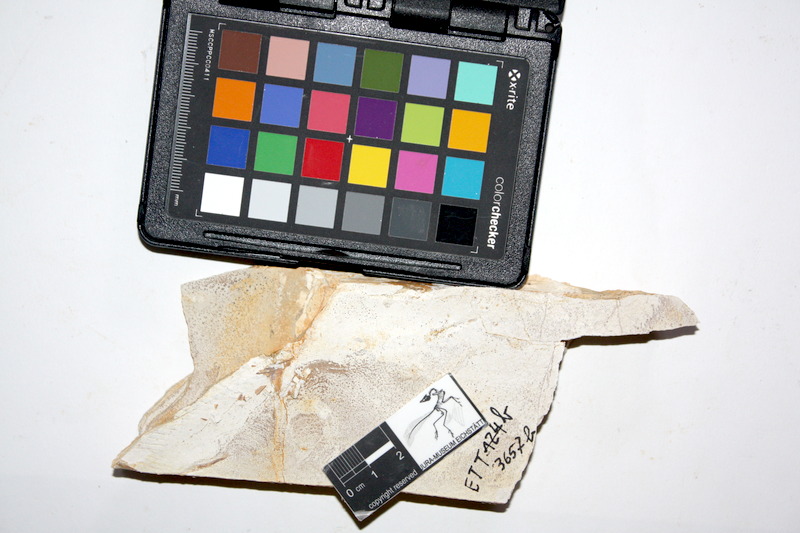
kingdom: Animalia
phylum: Chordata
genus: Thrissops
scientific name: Thrissops formosus
